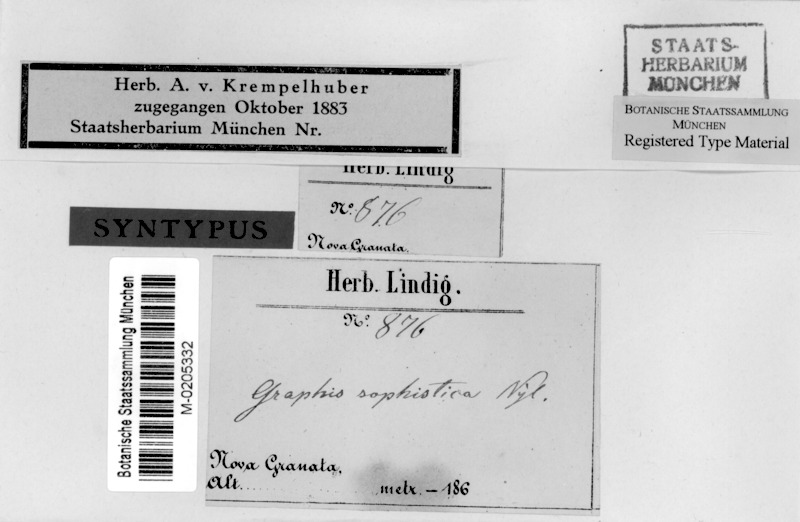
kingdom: Fungi
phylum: Ascomycota
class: Lecanoromycetes
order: Ostropales
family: Graphidaceae
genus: Graphina
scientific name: Graphina sophistica
